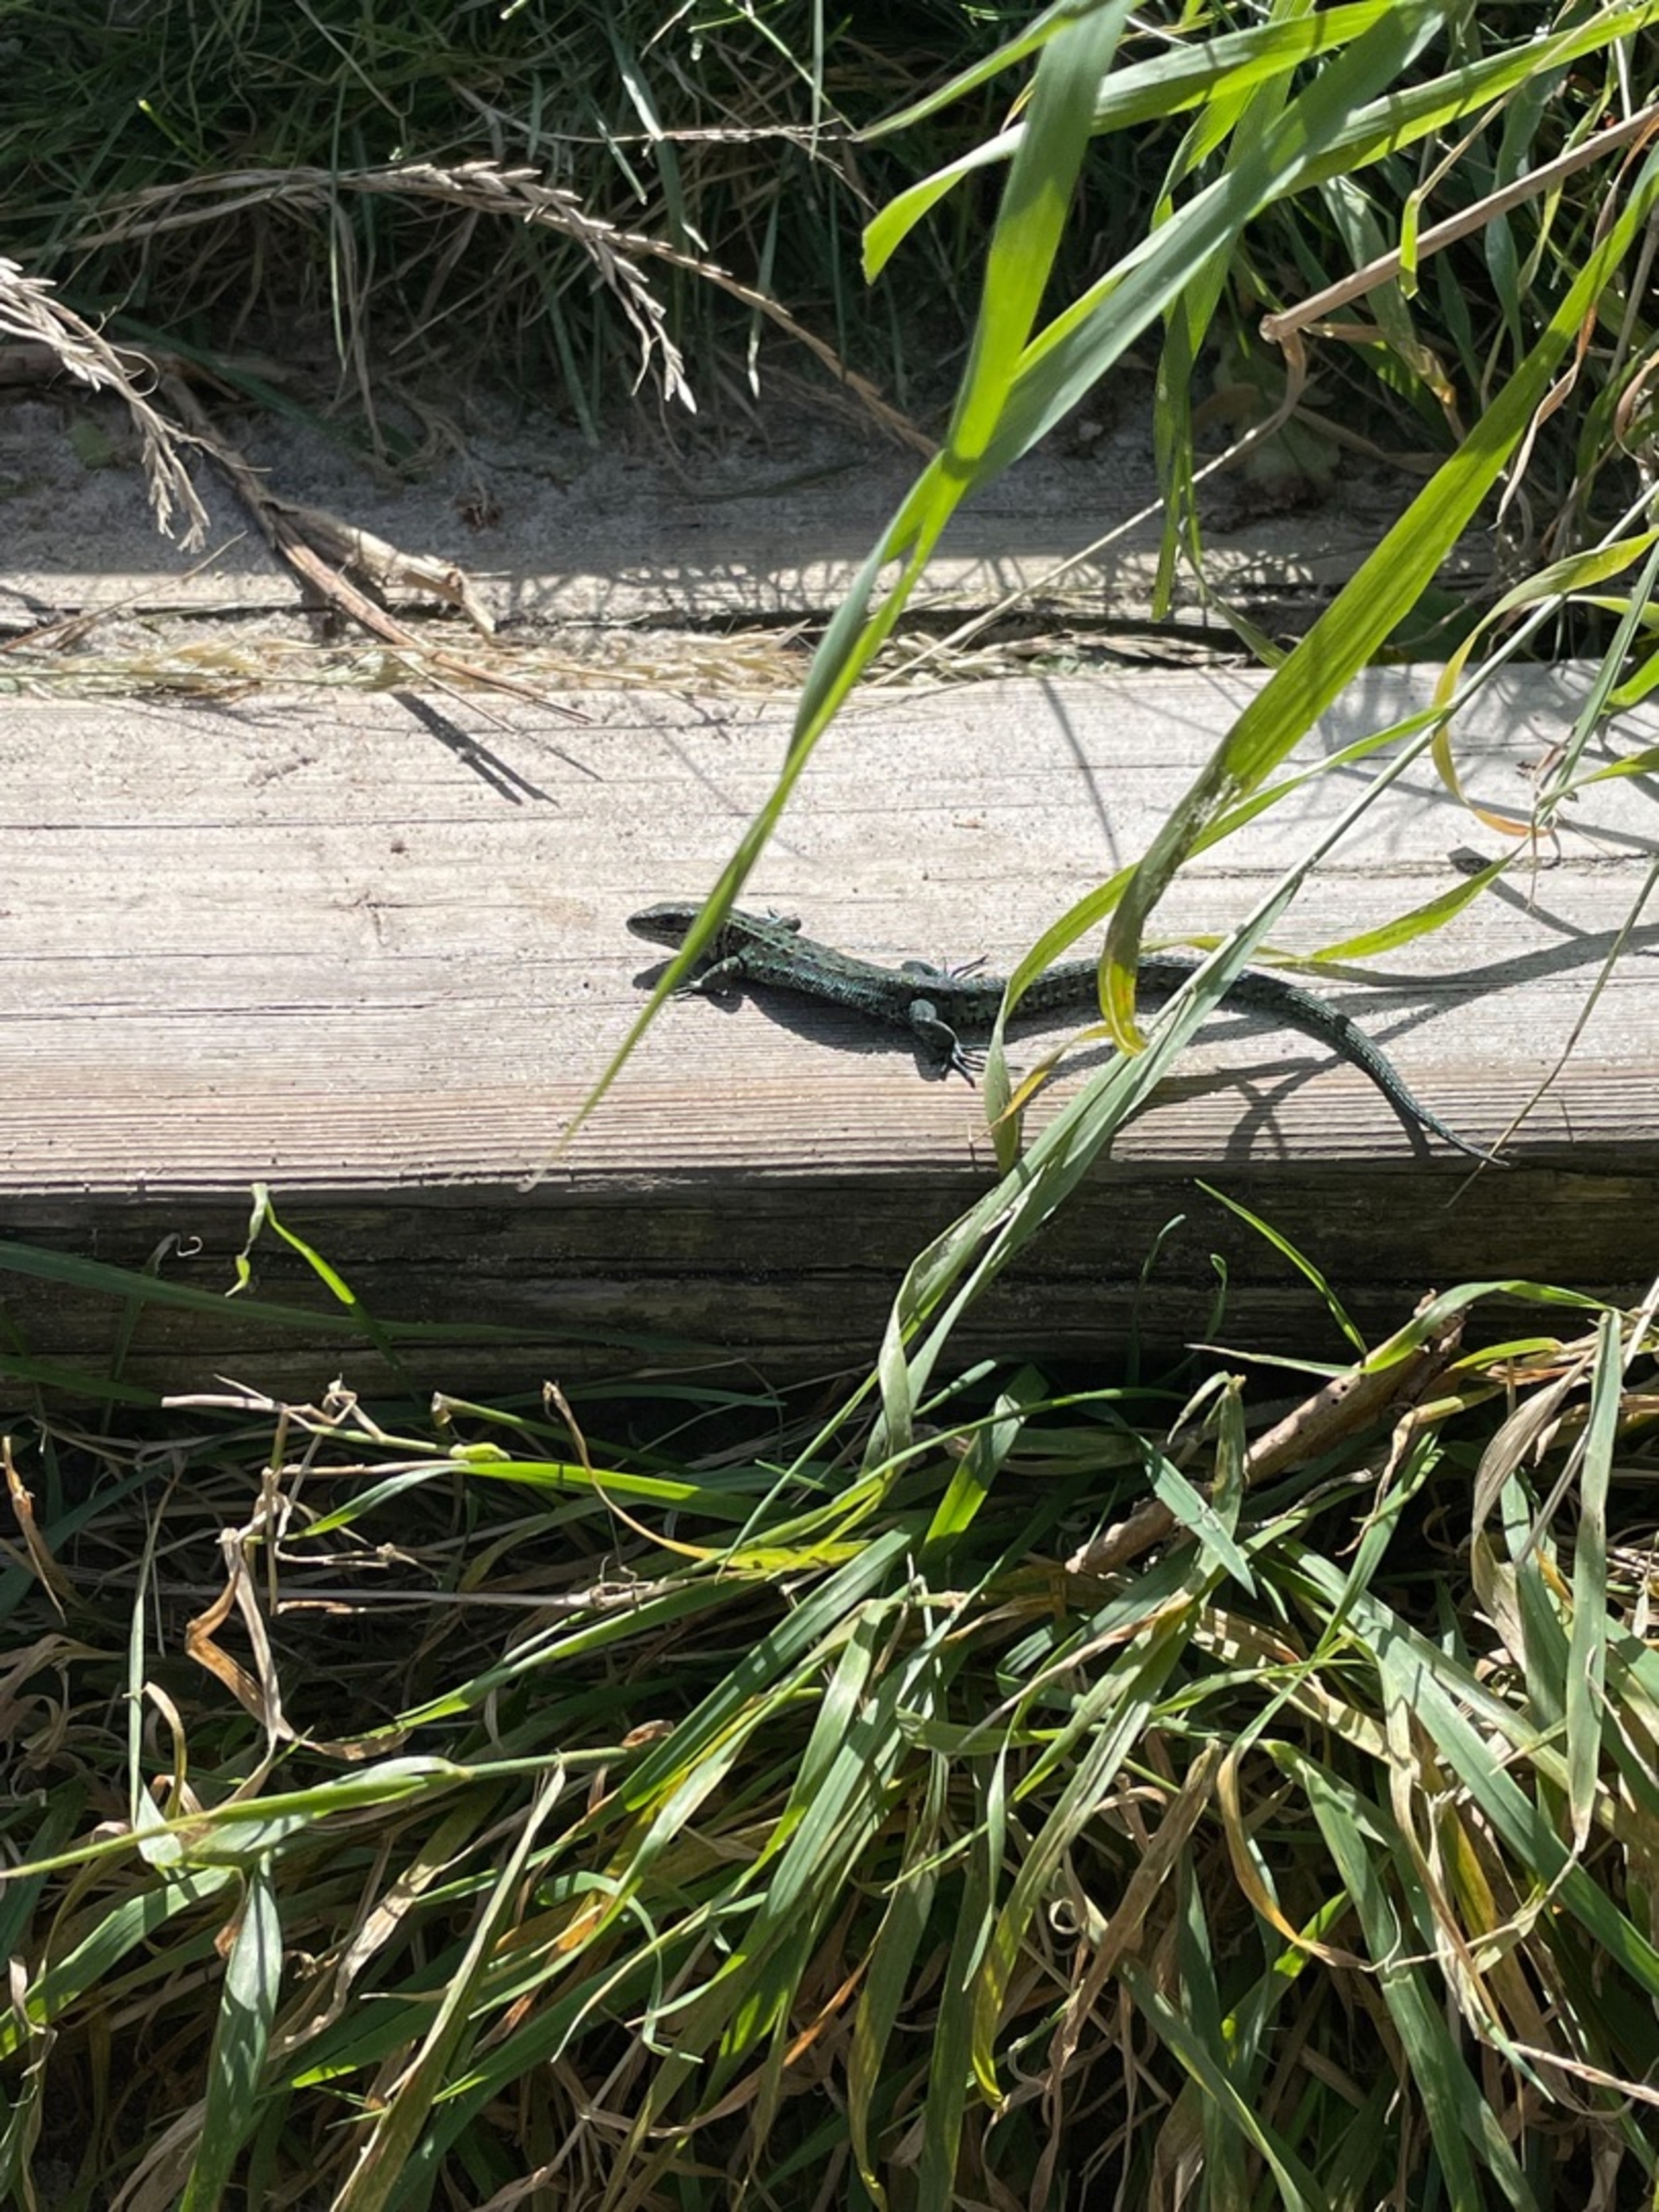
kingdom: Animalia
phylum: Chordata
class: Squamata
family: Lacertidae
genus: Zootoca
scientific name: Zootoca vivipara
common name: Skovfirben
